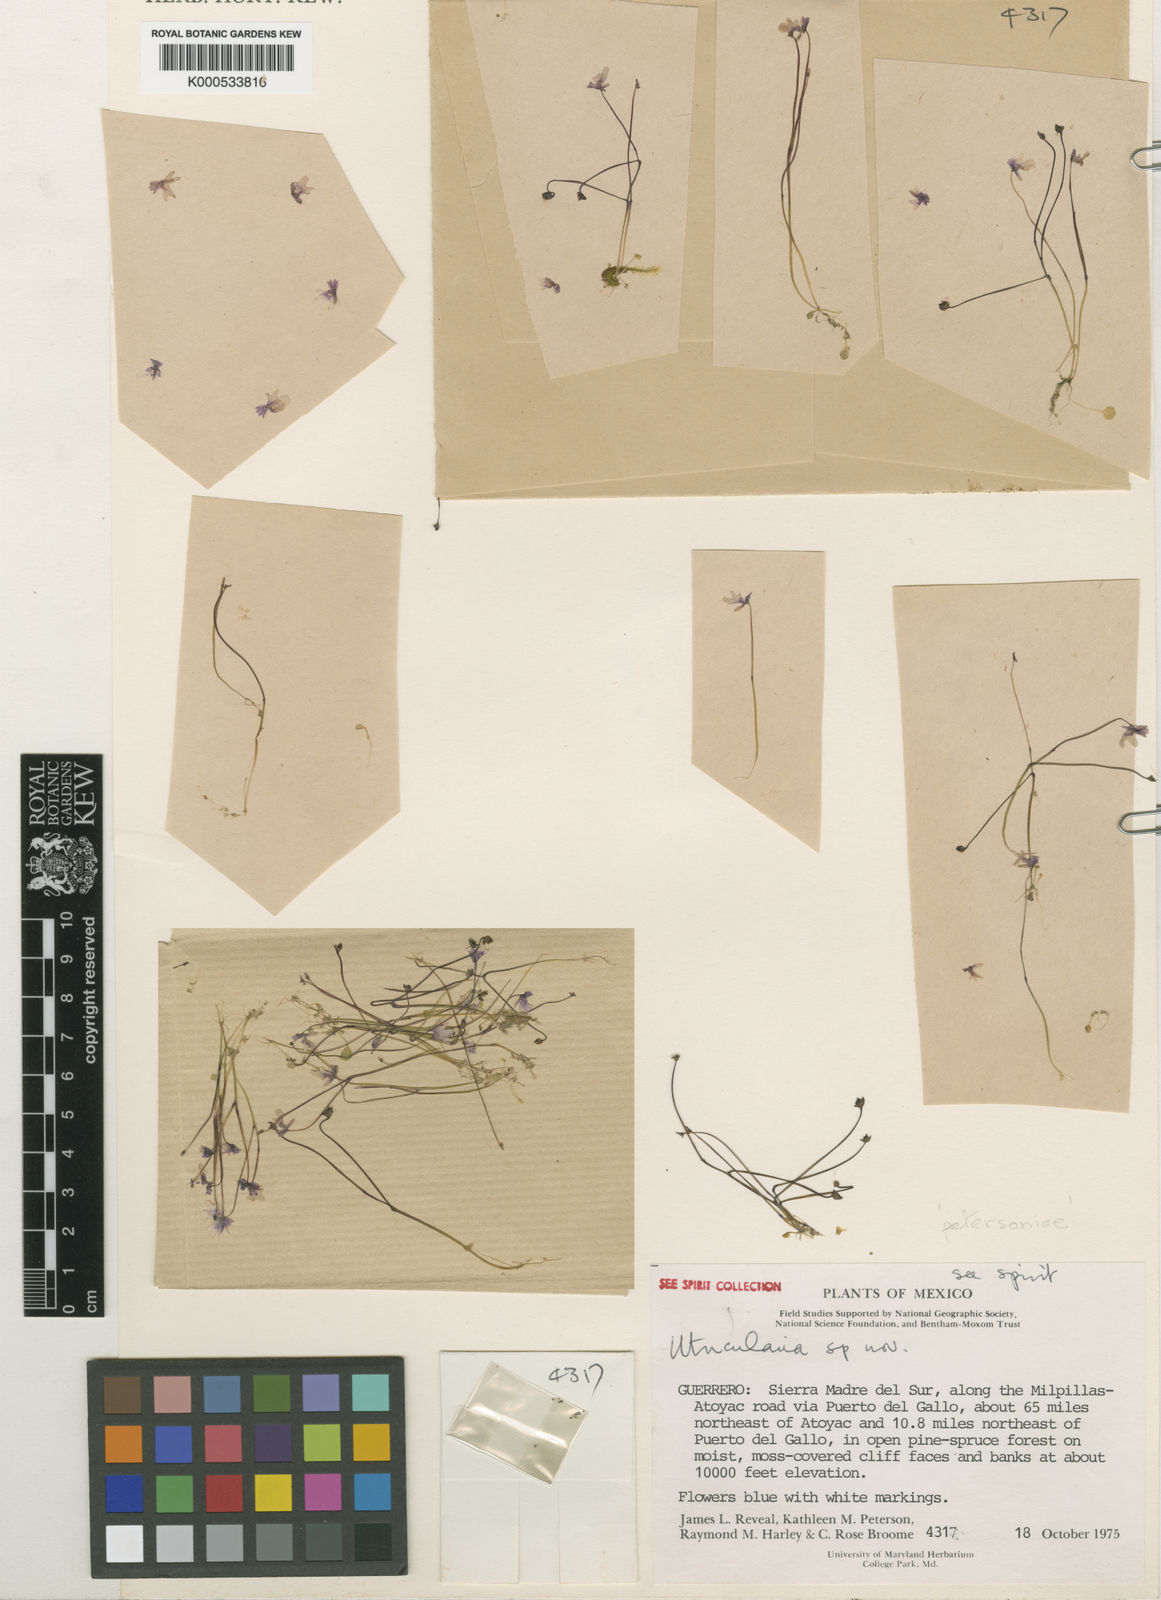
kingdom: Plantae
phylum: Tracheophyta
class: Magnoliopsida
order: Lamiales
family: Lentibulariaceae
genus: Utricularia
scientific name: Utricularia petersoniae
